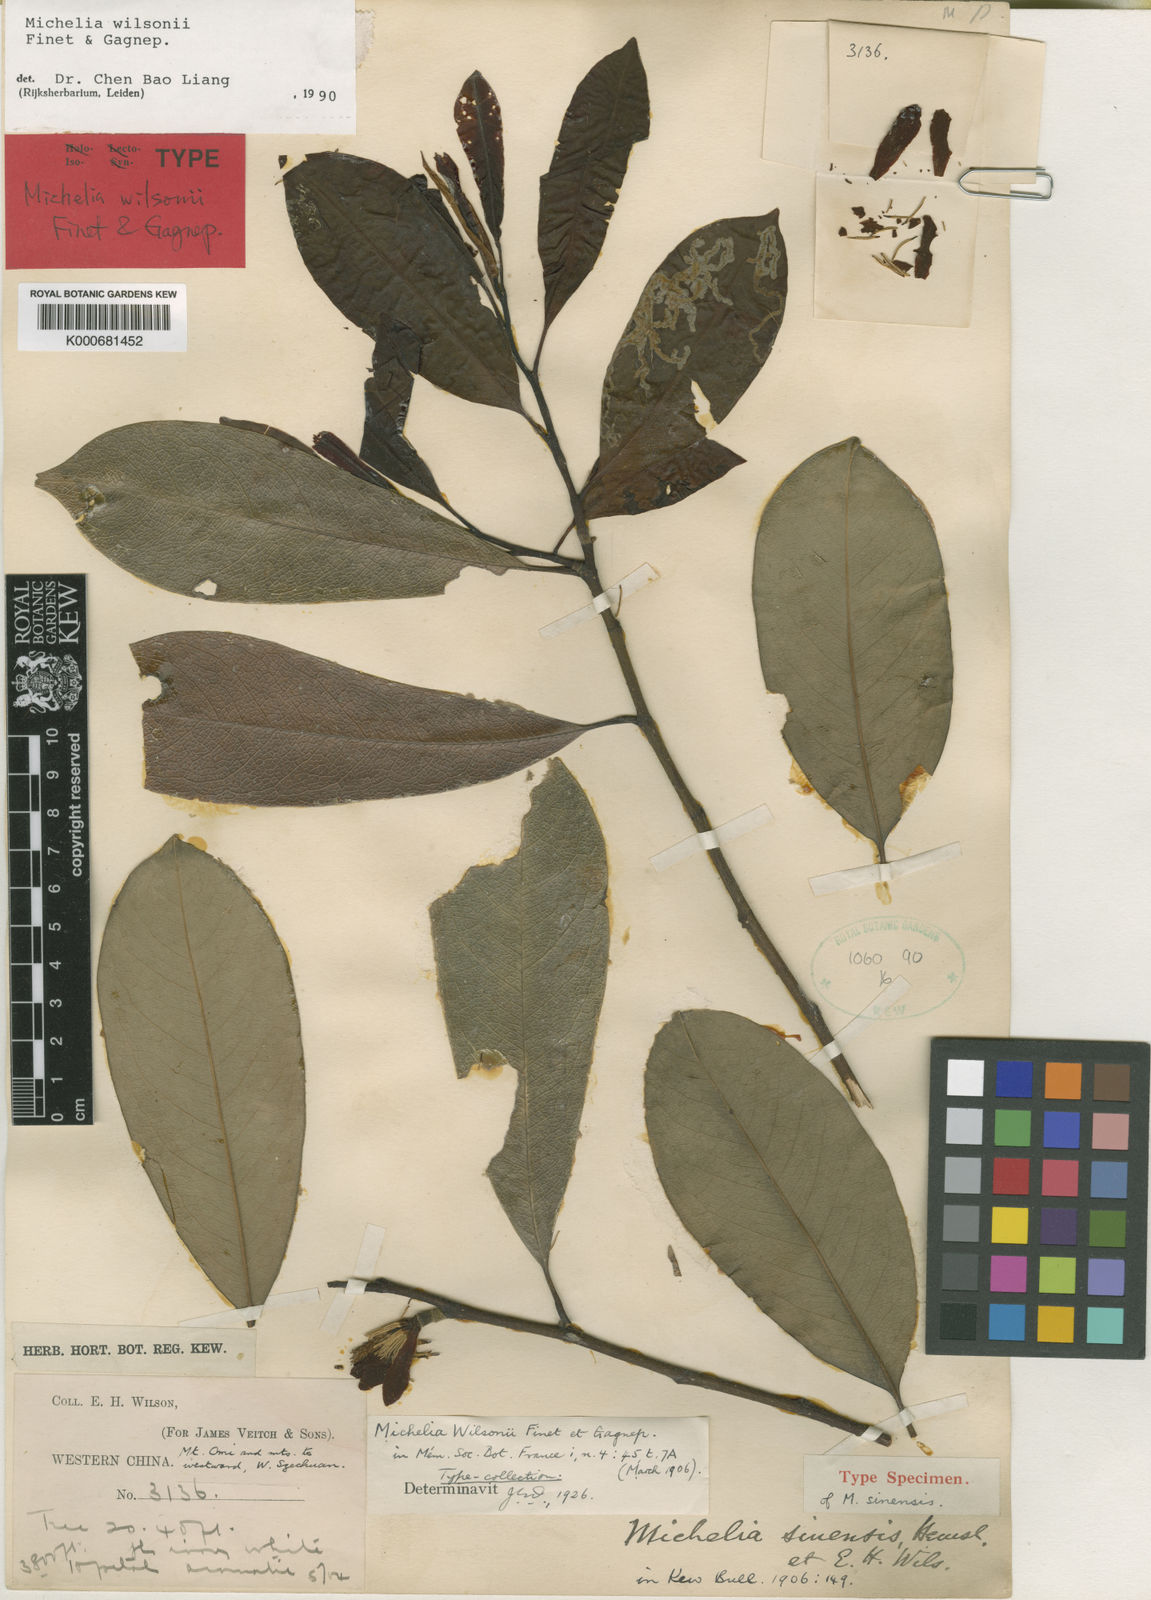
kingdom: Plantae
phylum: Tracheophyta
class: Magnoliopsida
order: Magnoliales
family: Magnoliaceae
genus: Magnolia
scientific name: Magnolia ernestii
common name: Yellow lily-tree
